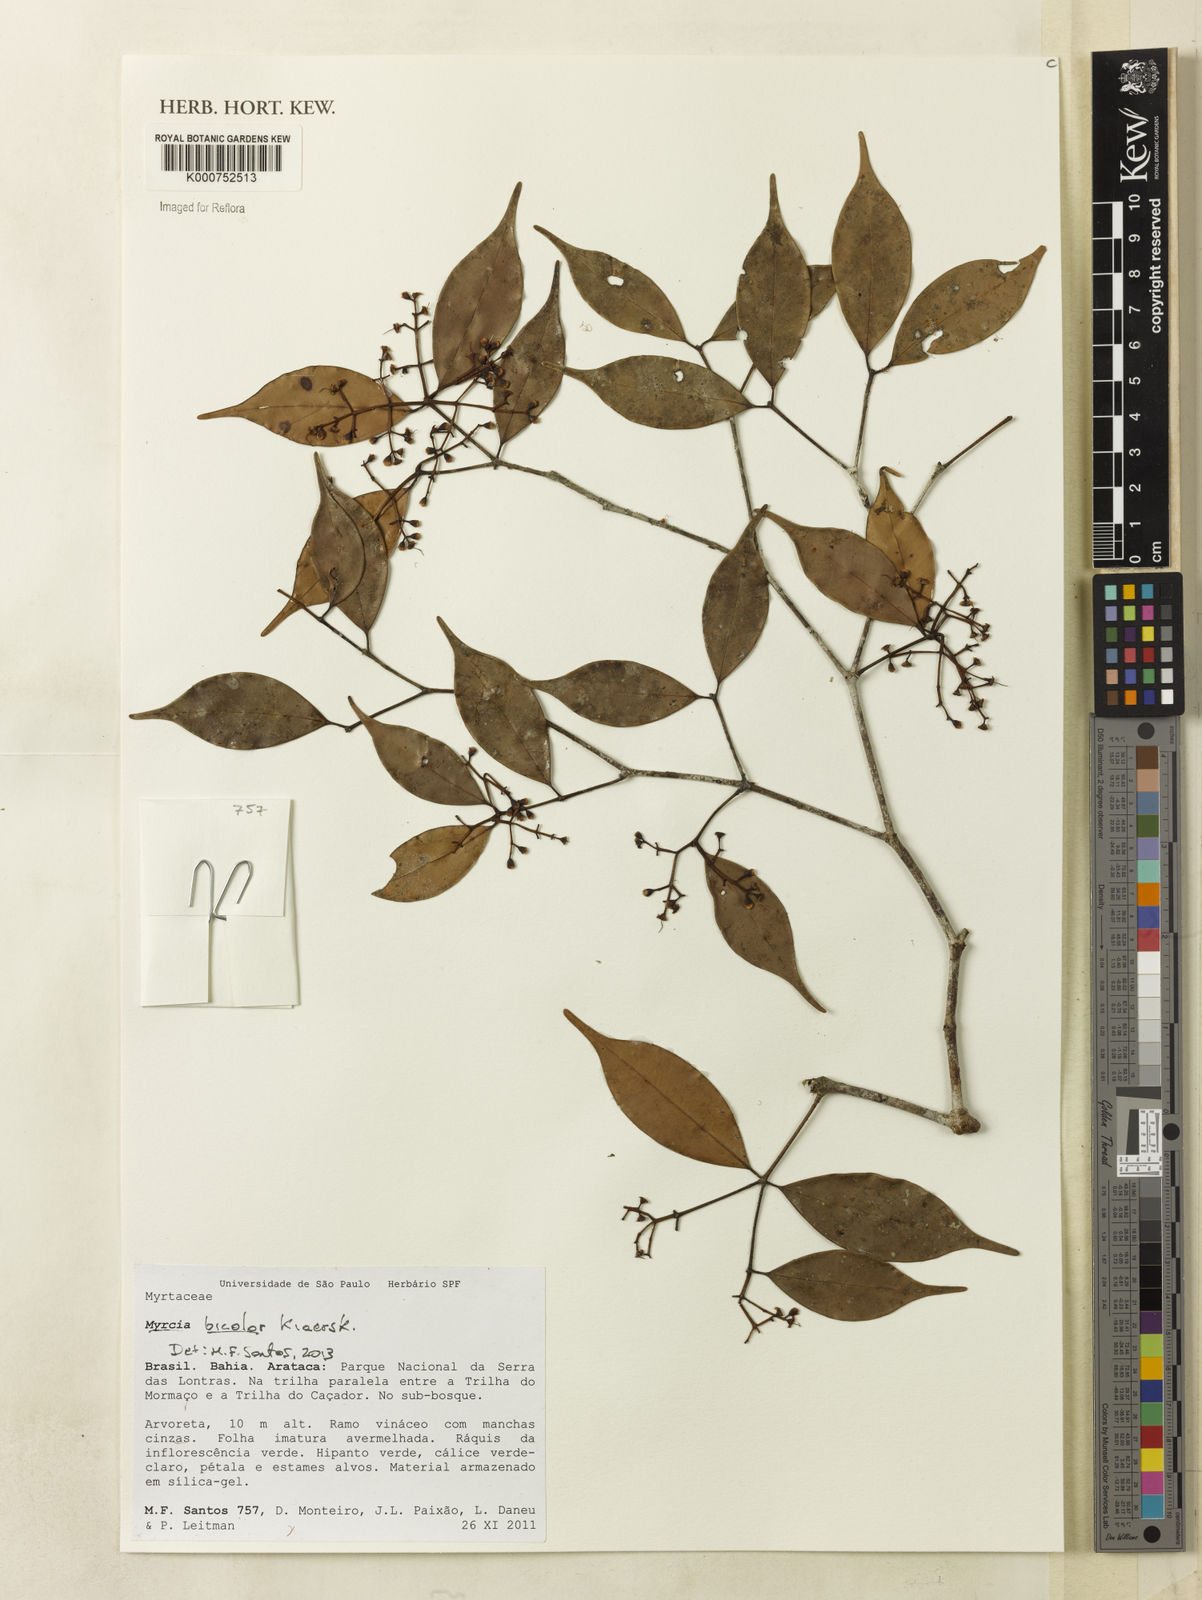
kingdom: Plantae
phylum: Tracheophyta
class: Magnoliopsida
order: Myrtales
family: Myrtaceae
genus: Myrcia
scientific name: Myrcia subterminalis
